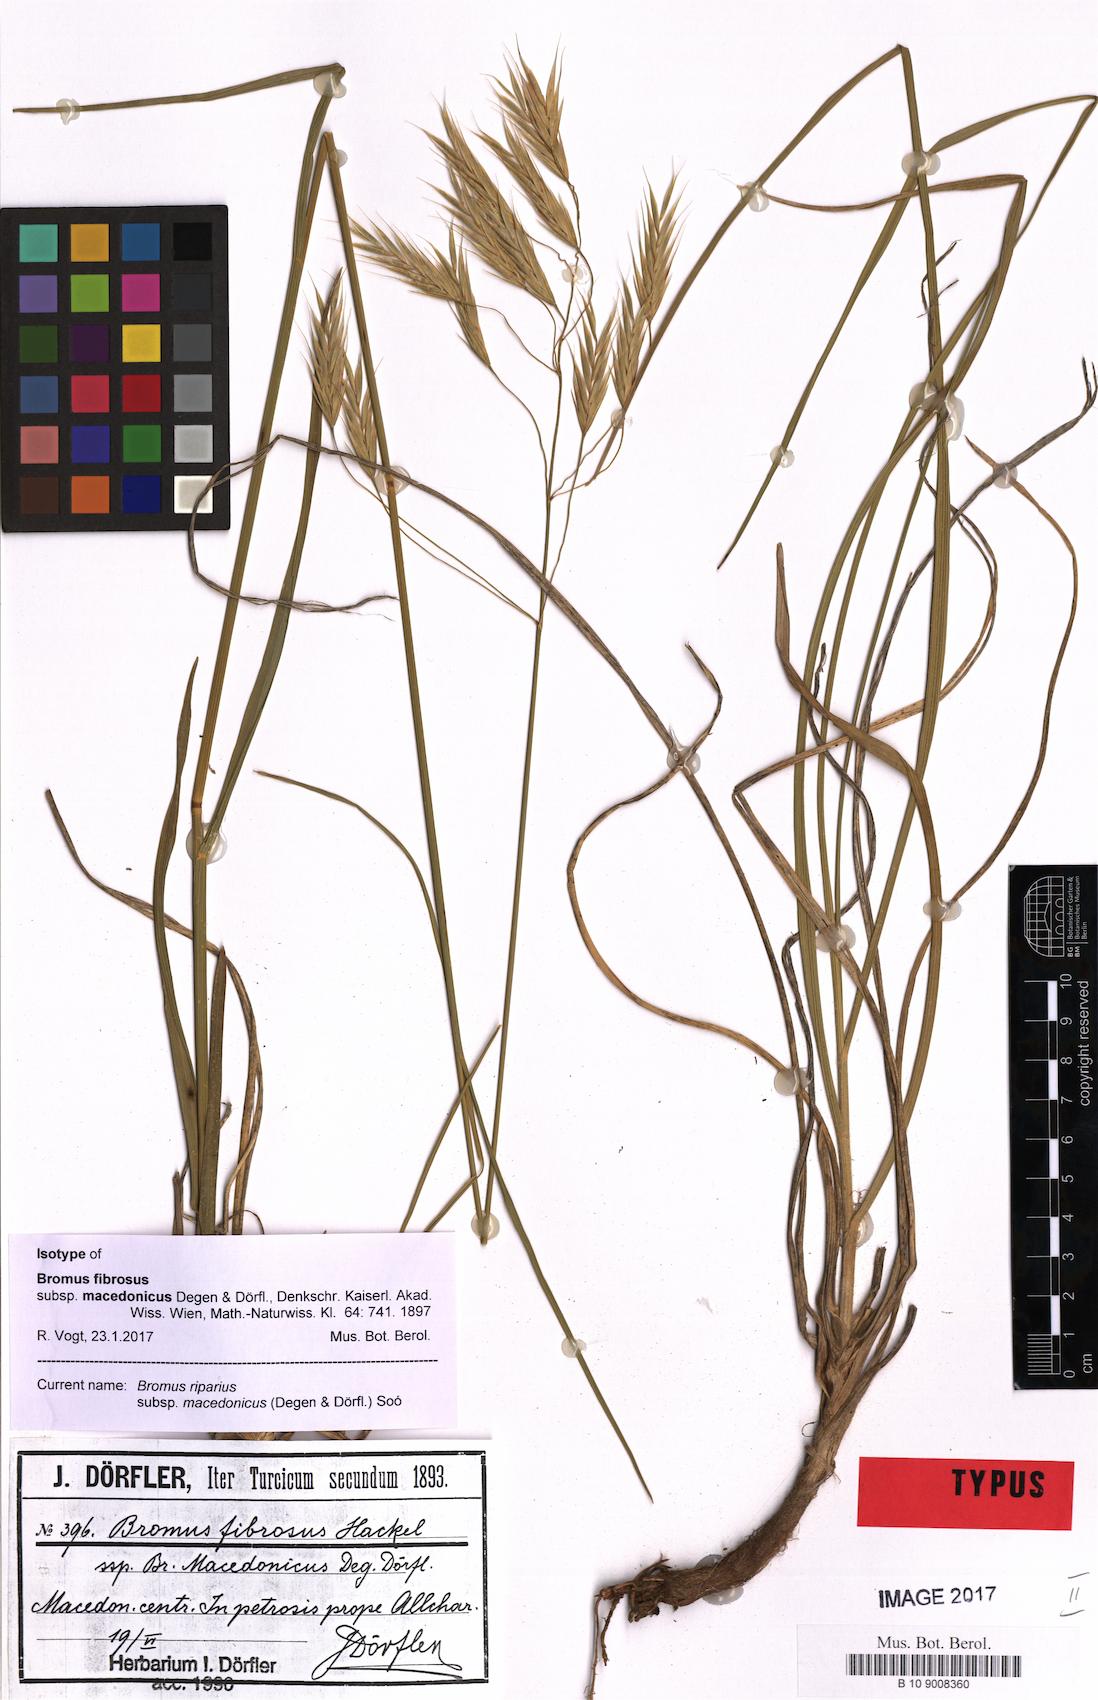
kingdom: Plantae
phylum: Tracheophyta
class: Liliopsida
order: Poales
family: Poaceae
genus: Bromus
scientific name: Bromus riparius
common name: Meadow brome
